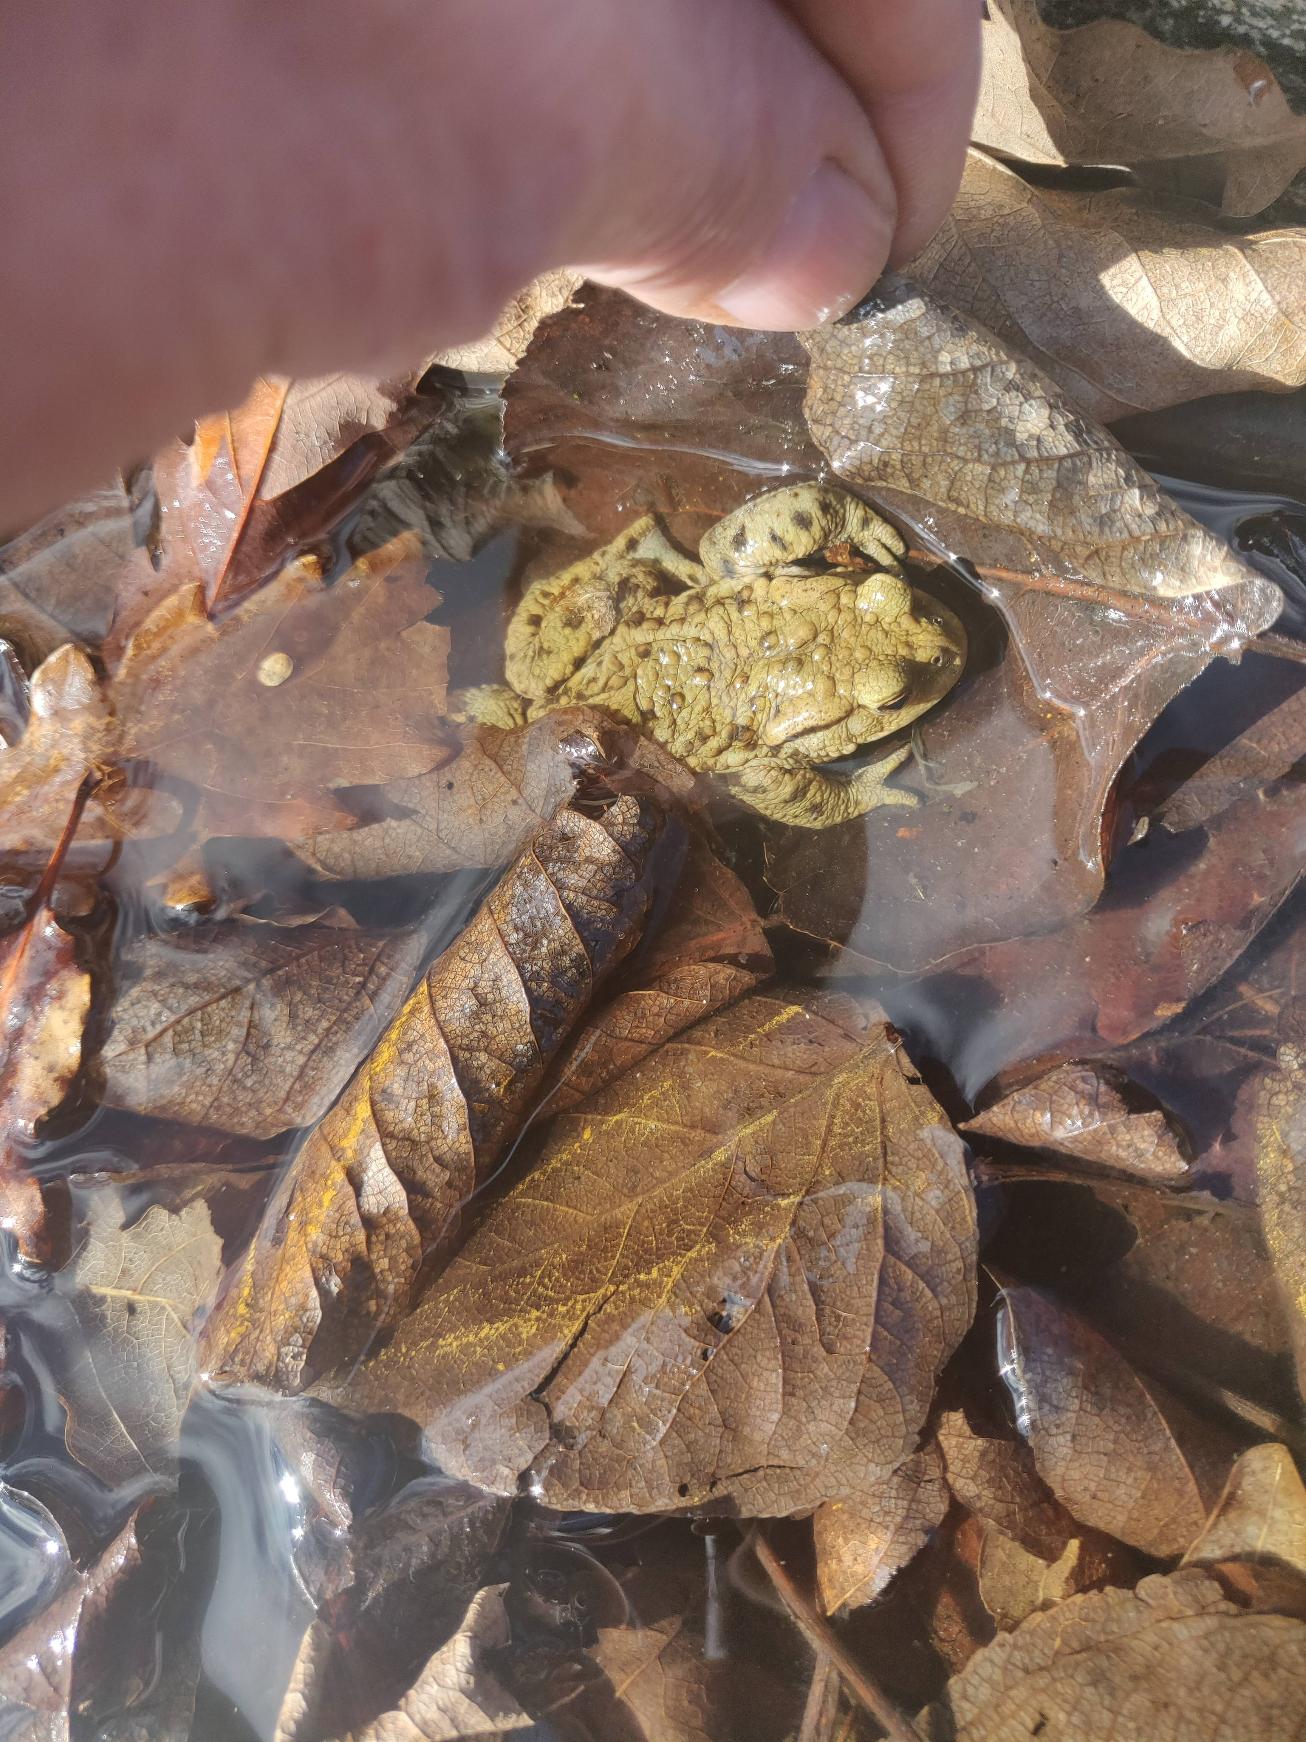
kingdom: Animalia
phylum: Chordata
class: Amphibia
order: Anura
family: Bufonidae
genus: Bufo
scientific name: Bufo bufo
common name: Skrubtudse
